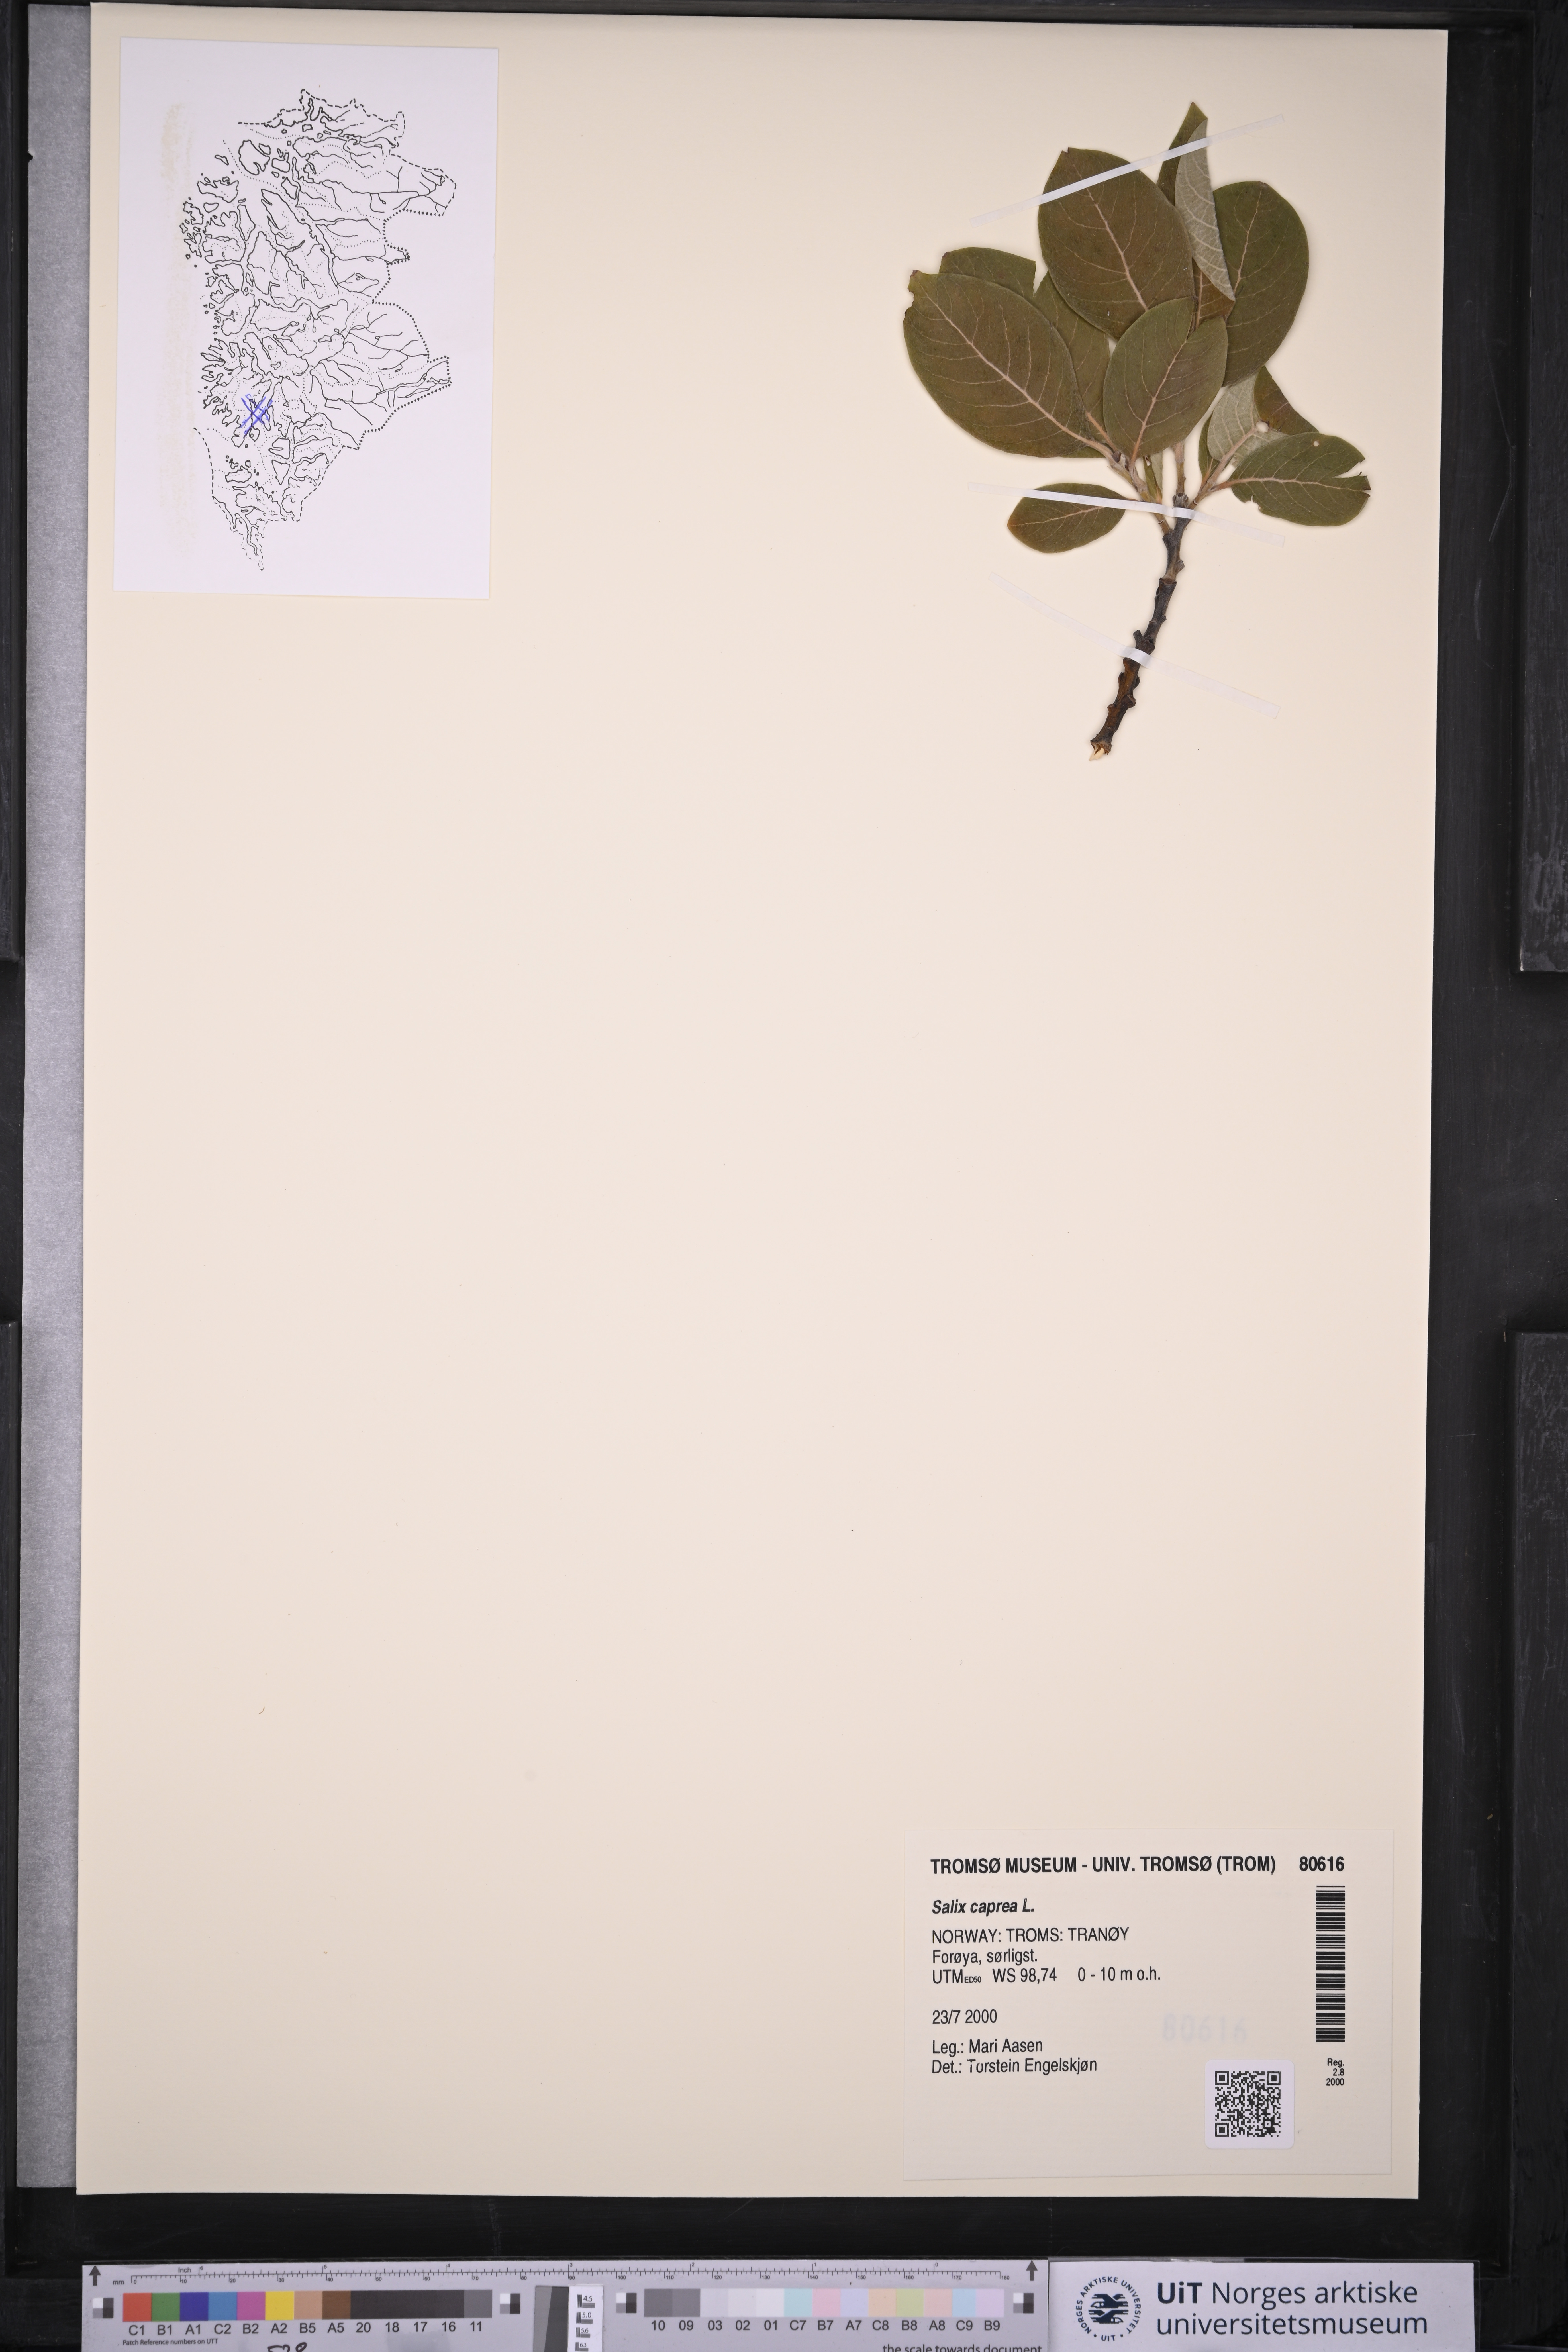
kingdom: Plantae
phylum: Tracheophyta
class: Magnoliopsida
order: Malpighiales
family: Salicaceae
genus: Salix
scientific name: Salix caprea
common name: Goat willow
